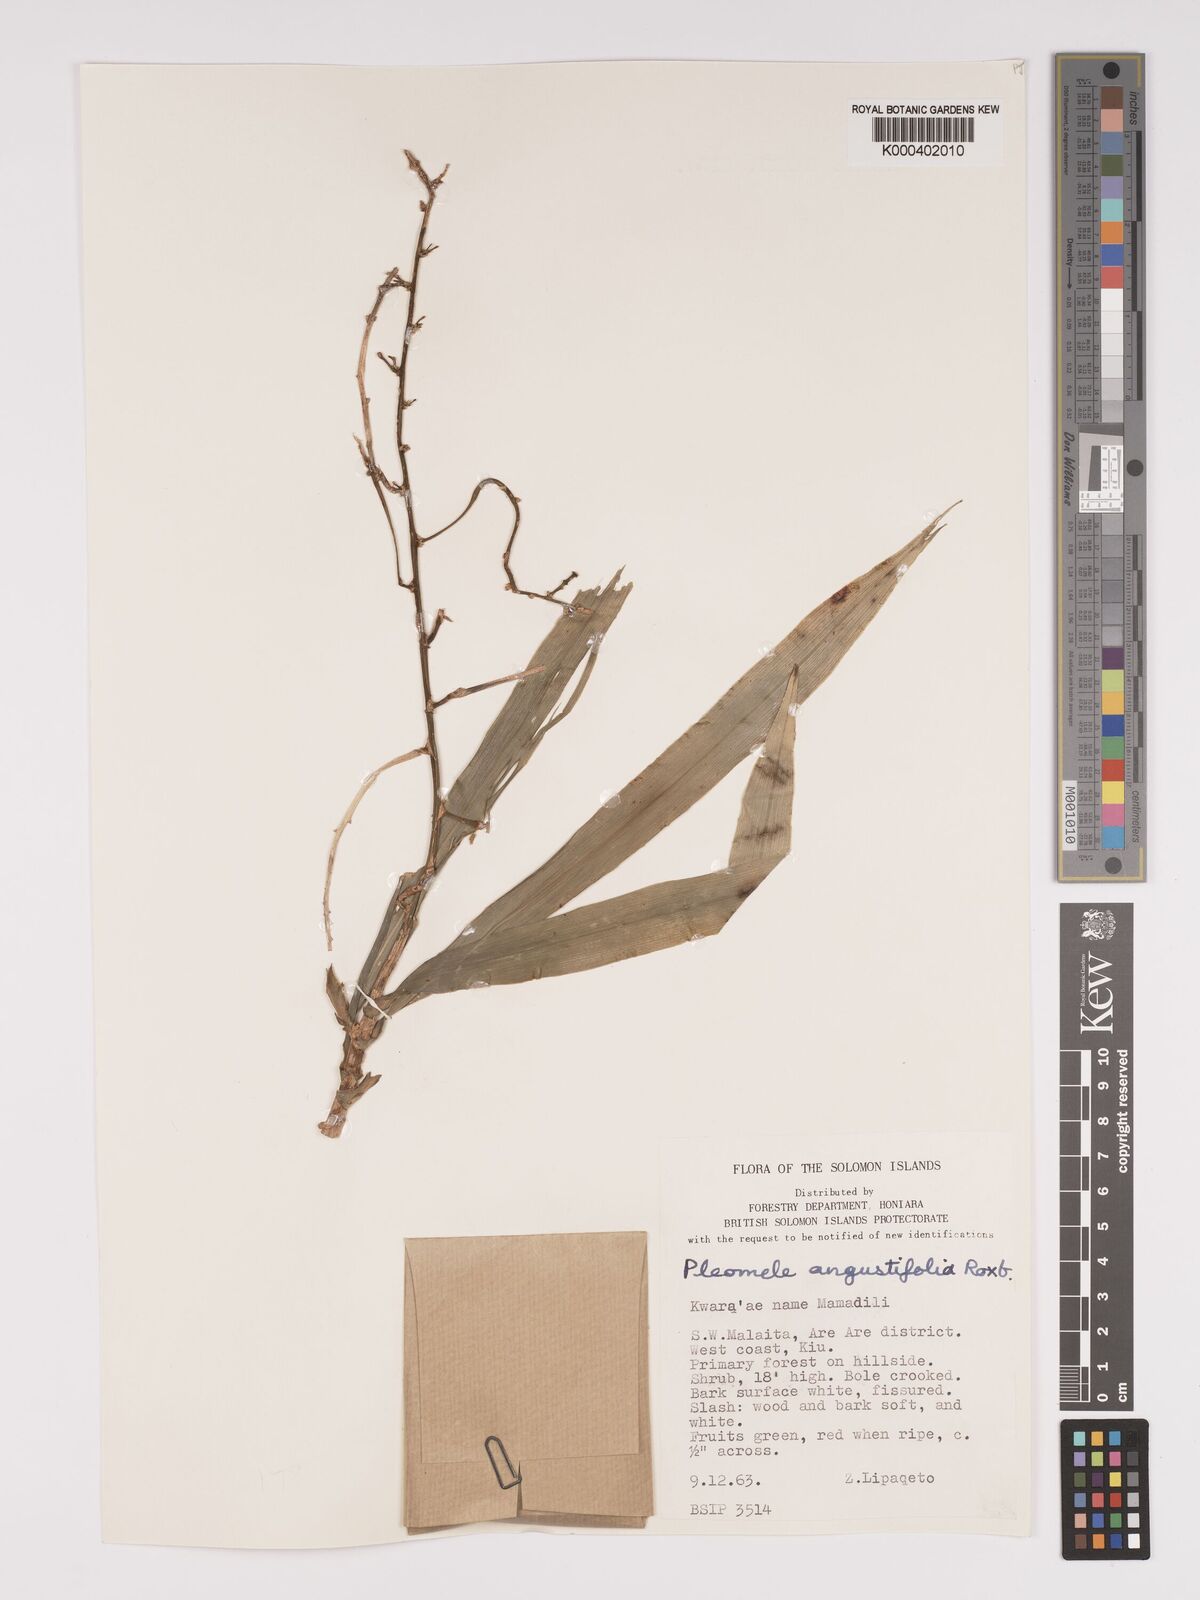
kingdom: Plantae
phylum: Tracheophyta
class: Liliopsida
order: Asparagales
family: Asparagaceae
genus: Dracaena
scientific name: Dracaena angustifolia
